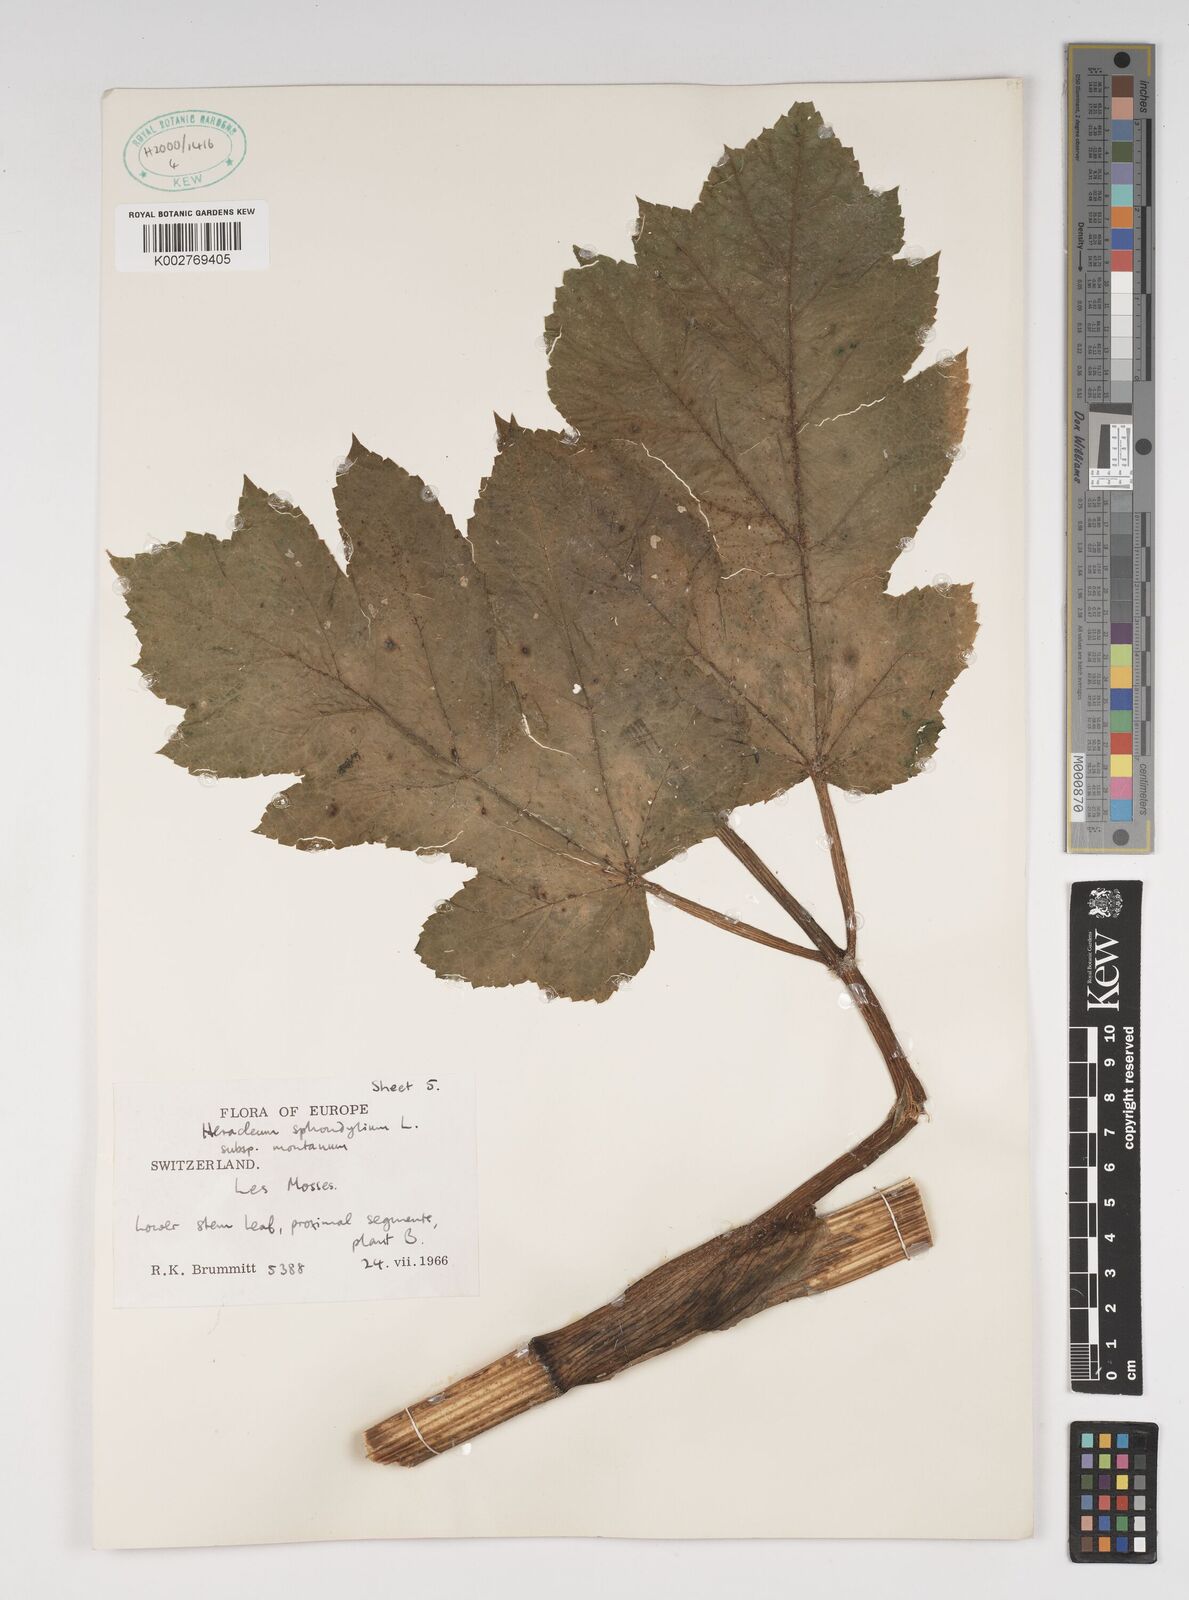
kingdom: Plantae
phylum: Tracheophyta
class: Magnoliopsida
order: Apiales
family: Apiaceae
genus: Heracleum
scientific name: Heracleum sphondylium
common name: Hogweed
